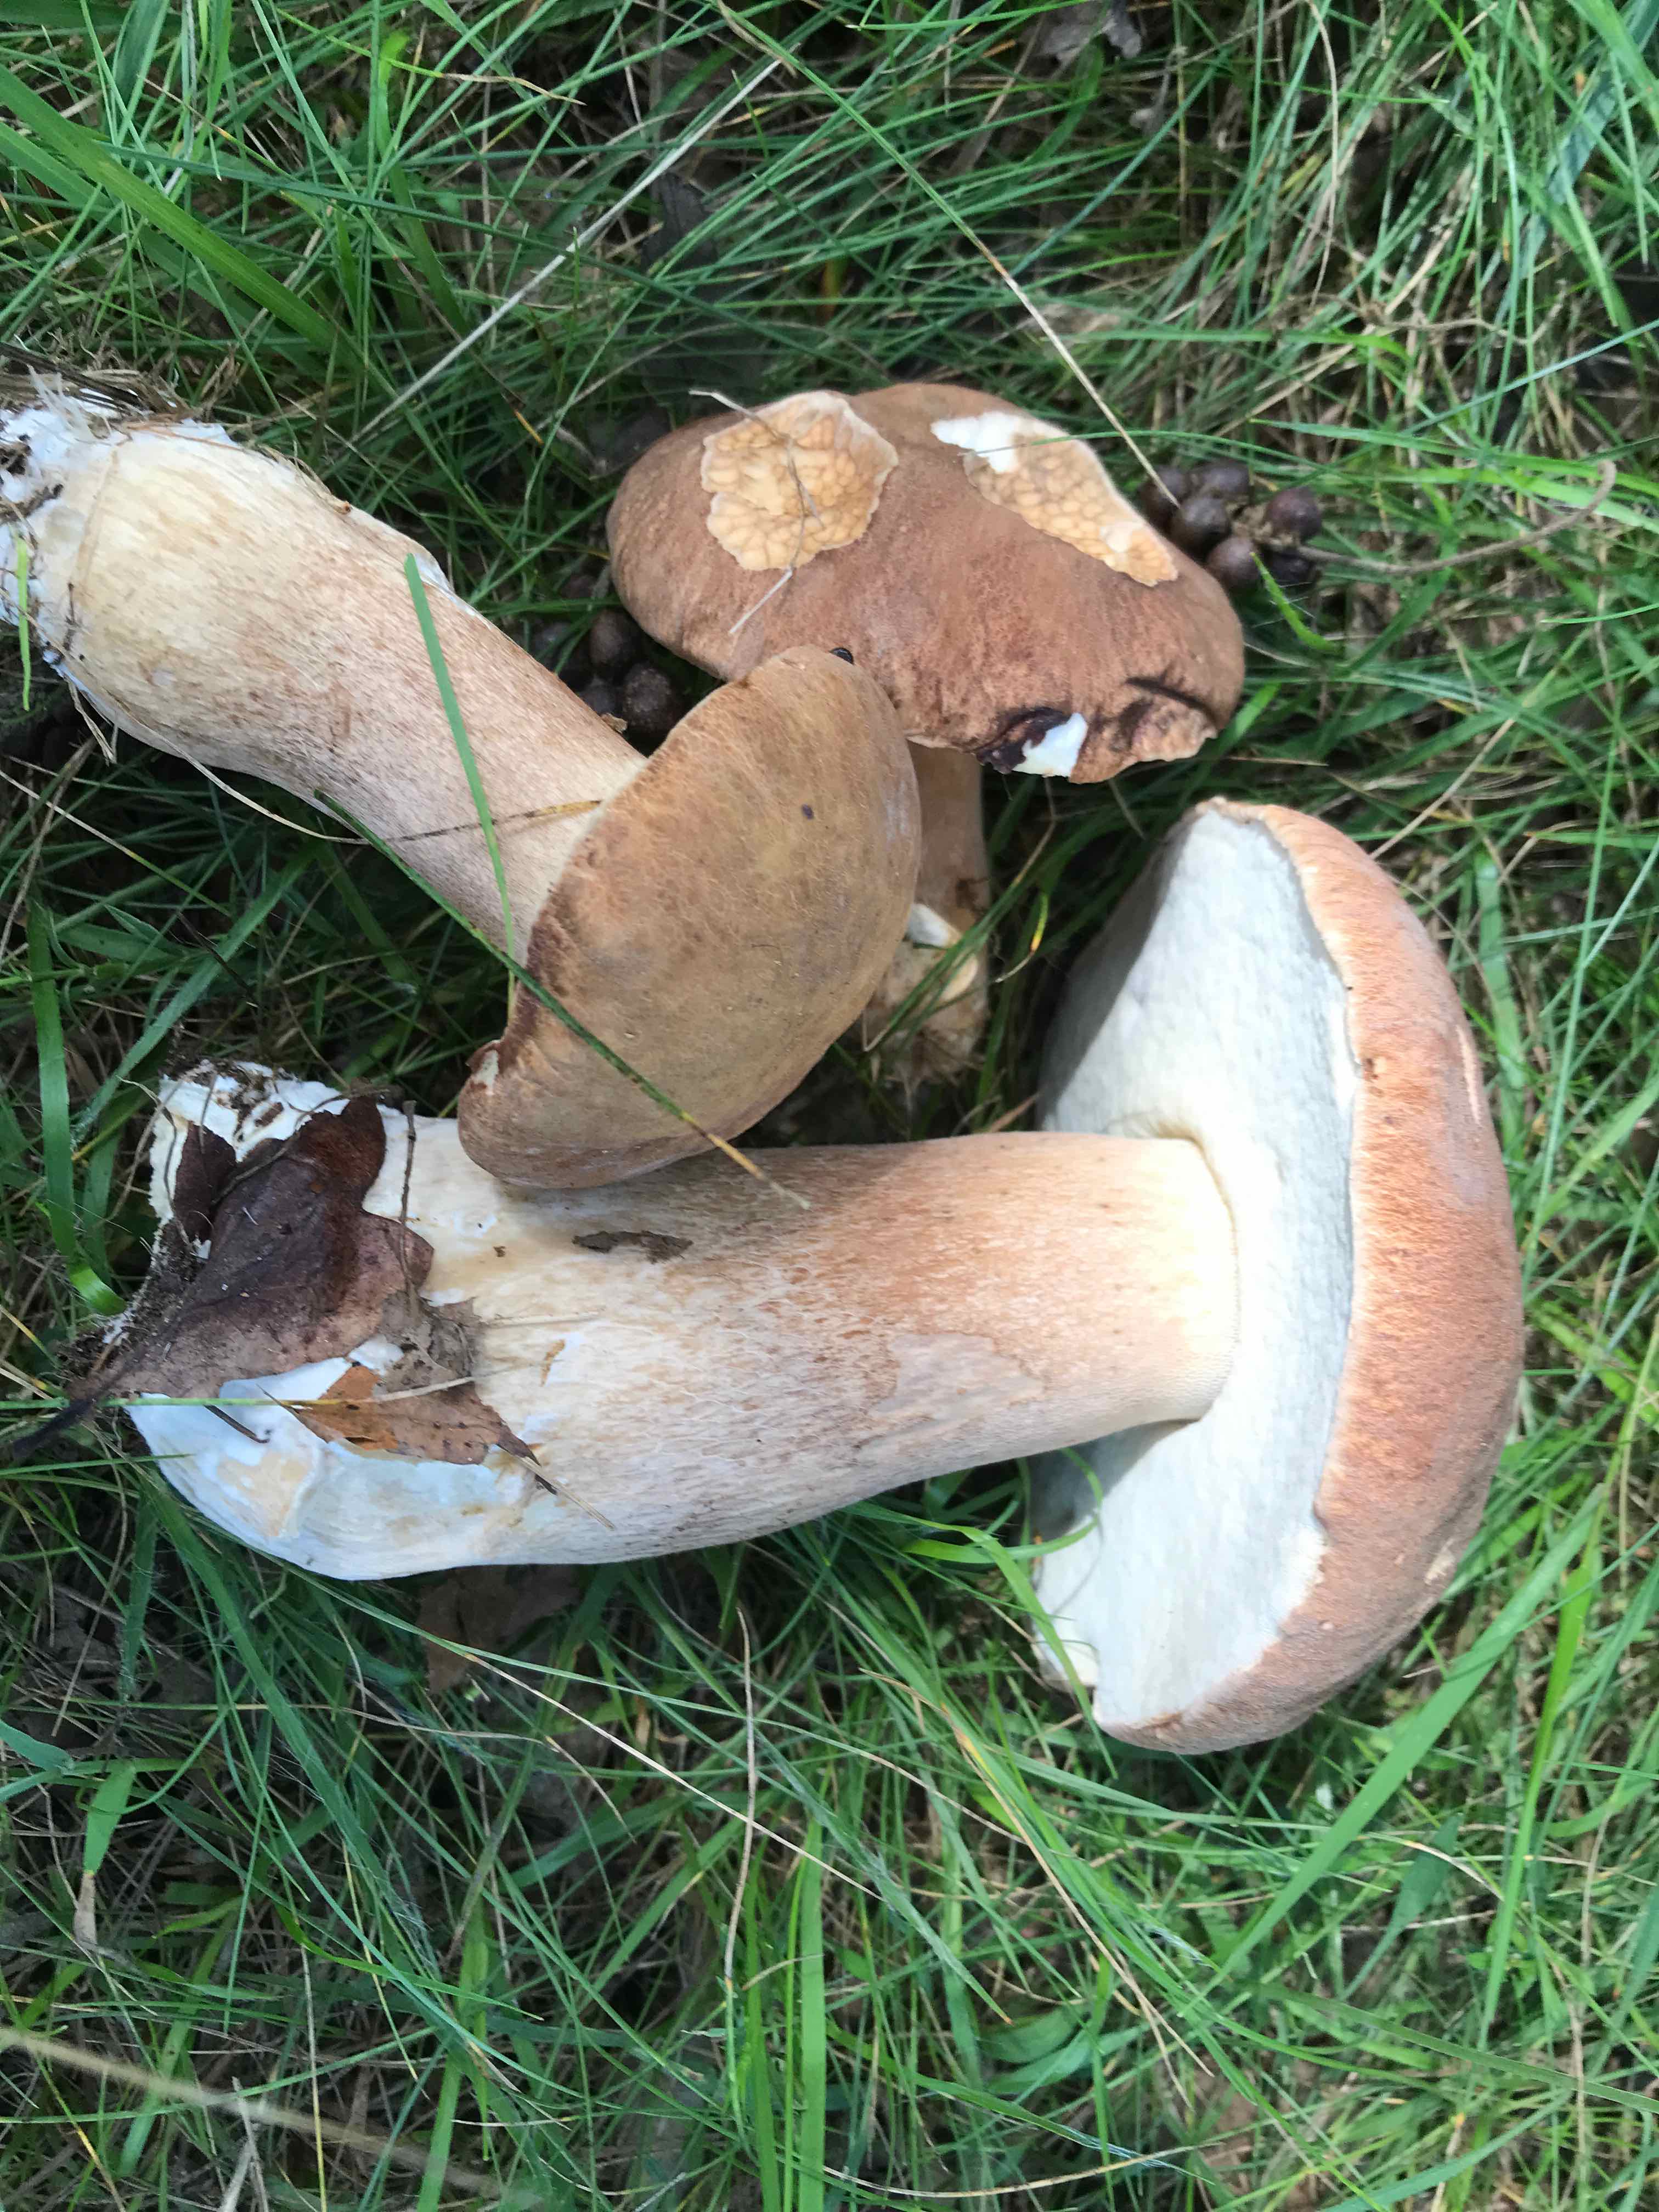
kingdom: Fungi
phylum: Basidiomycota
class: Agaricomycetes
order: Boletales
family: Boletaceae
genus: Boletus
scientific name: Boletus reticulatus
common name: sommer-rørhat
